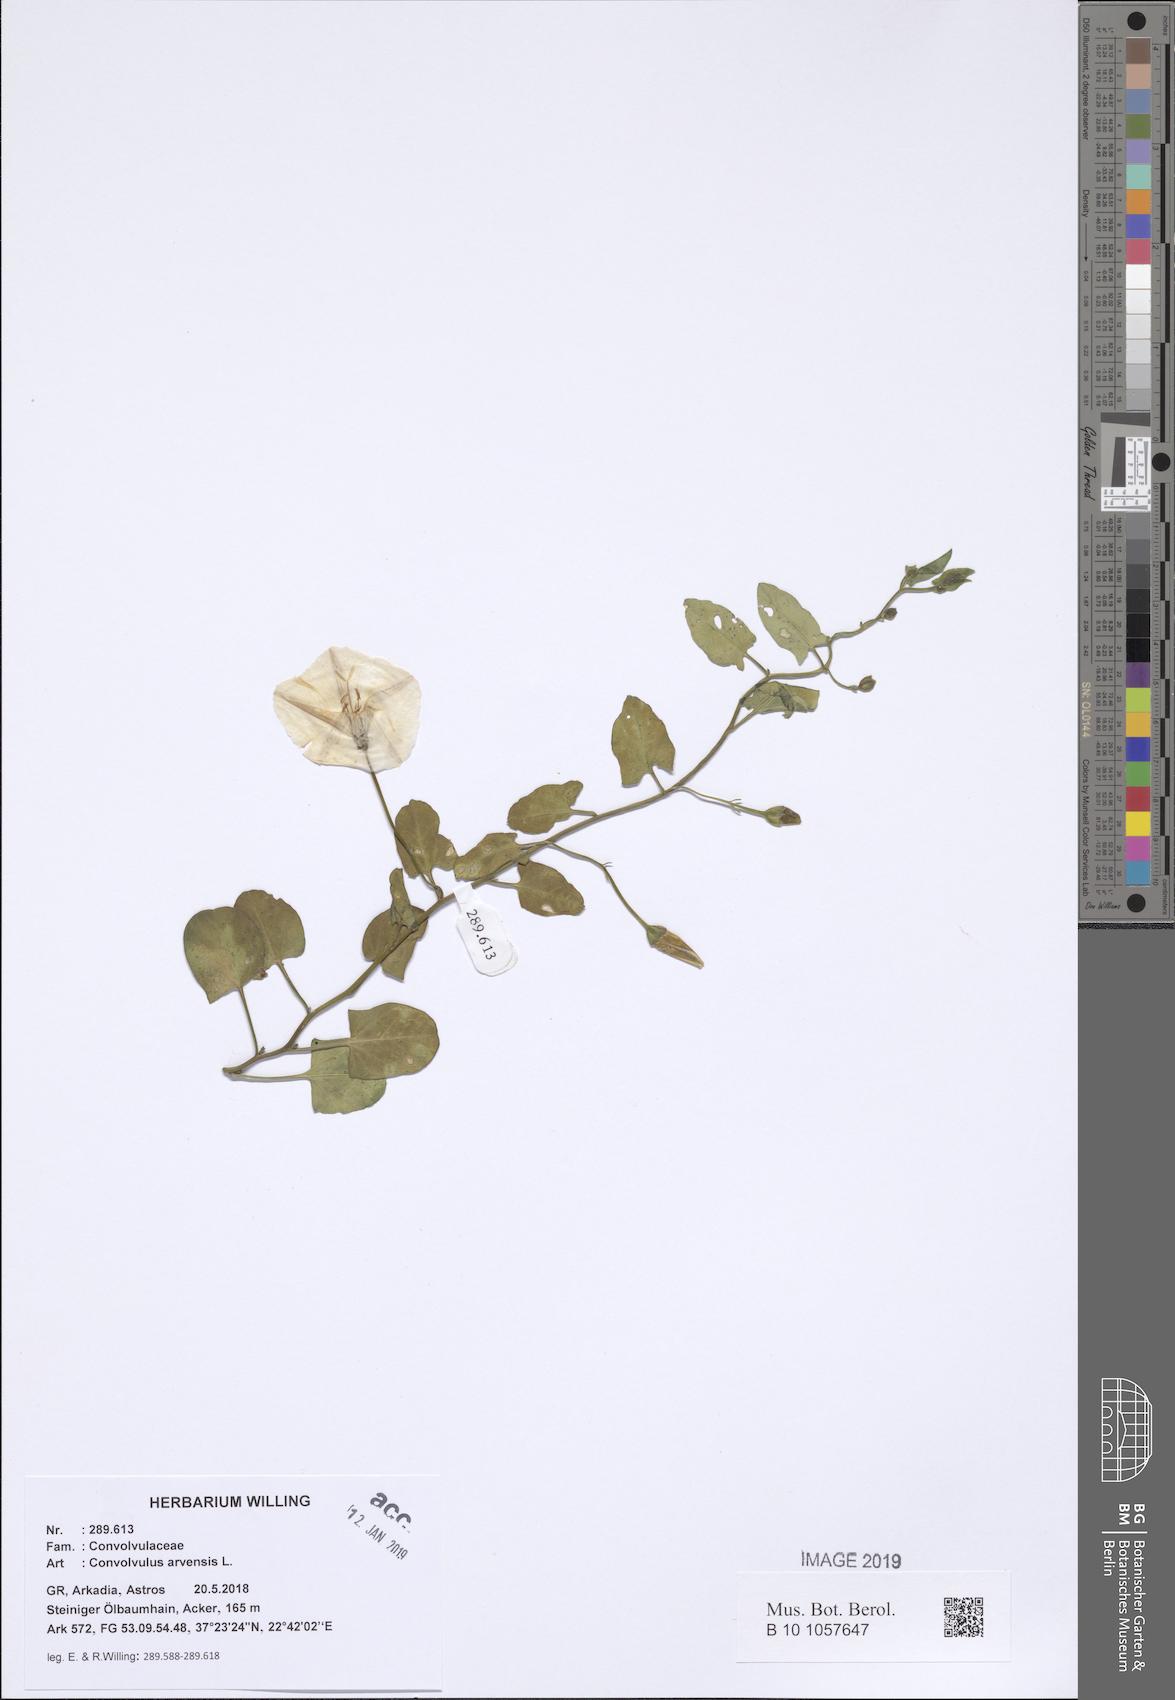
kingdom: Plantae
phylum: Tracheophyta
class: Magnoliopsida
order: Solanales
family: Convolvulaceae
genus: Convolvulus
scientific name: Convolvulus arvensis
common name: Field bindweed
